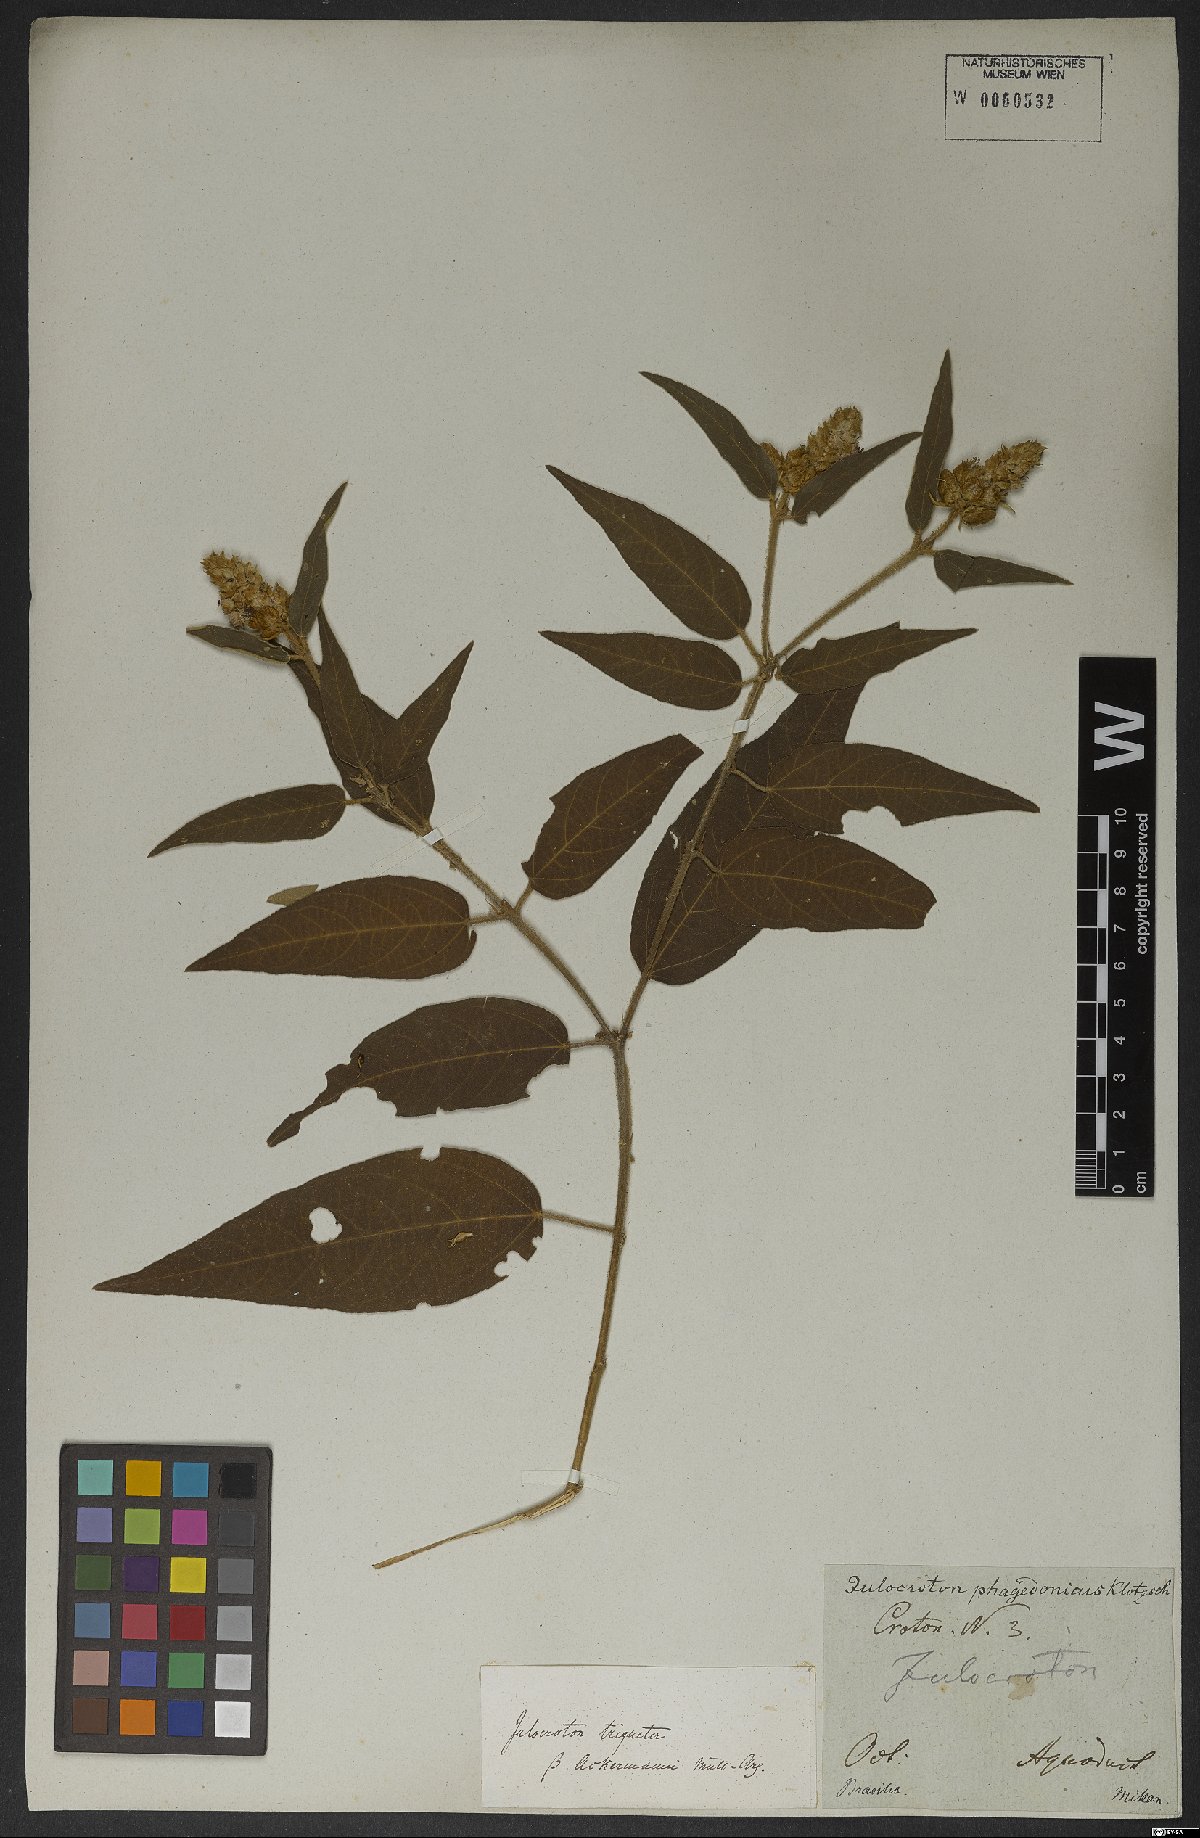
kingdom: Plantae
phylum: Tracheophyta
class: Magnoliopsida
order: Malpighiales
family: Euphorbiaceae
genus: Croton
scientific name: Croton ackermannianus
